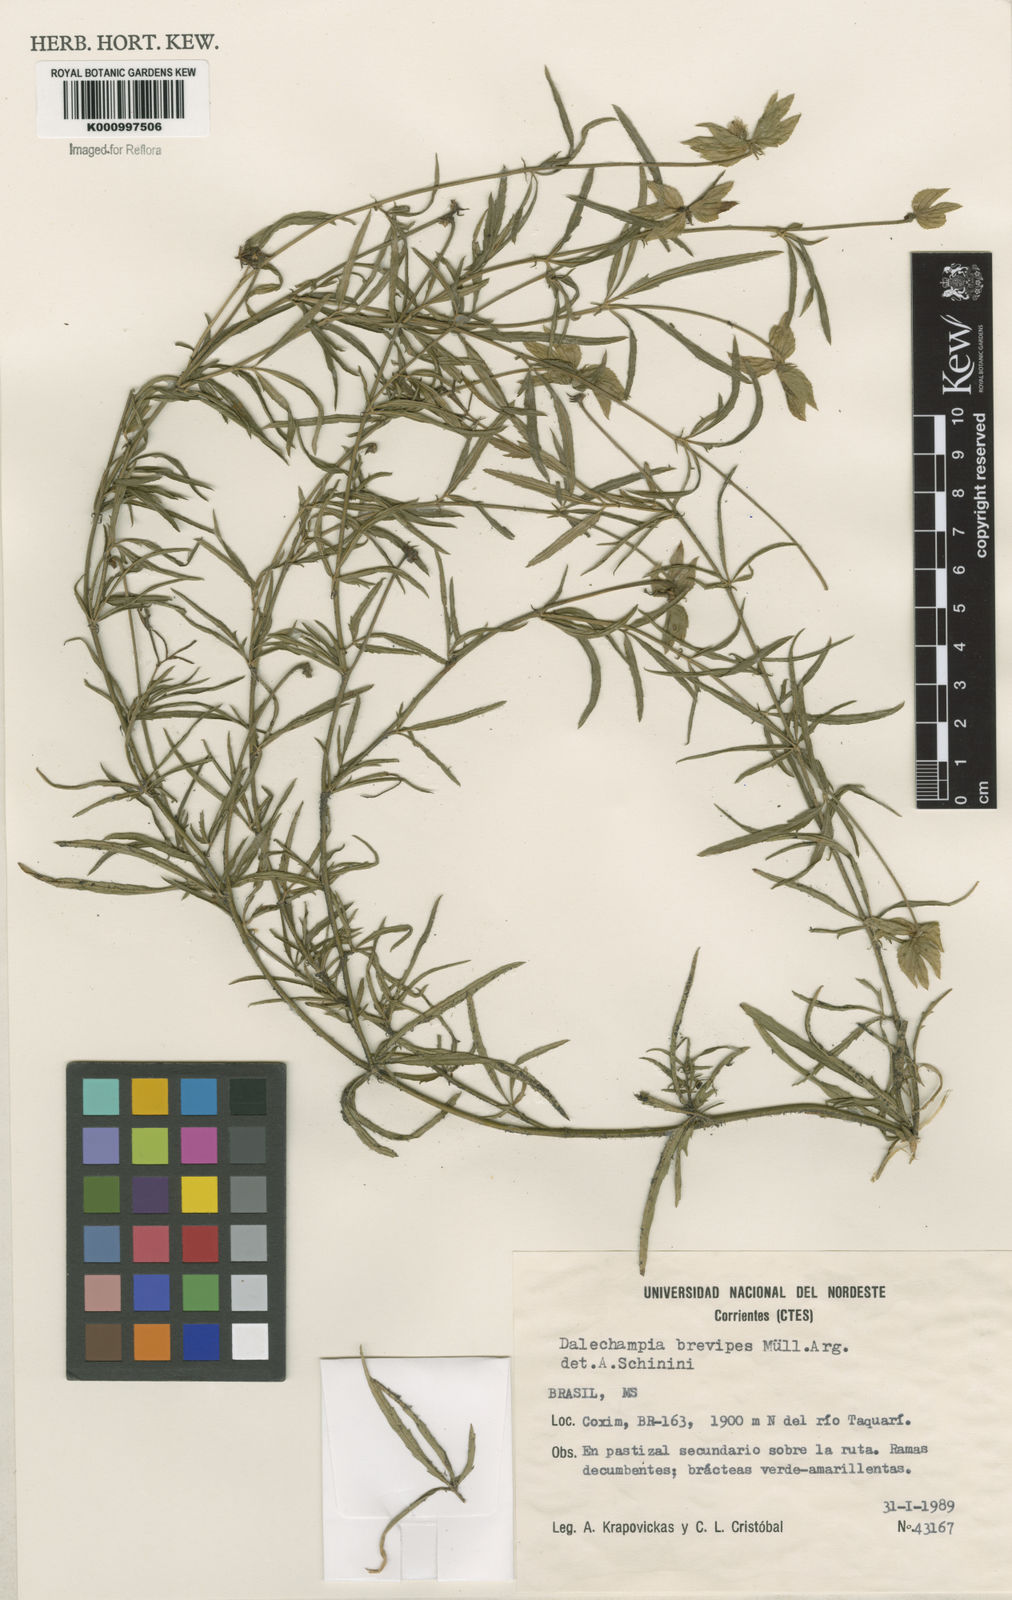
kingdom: Plantae
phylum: Tracheophyta
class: Magnoliopsida
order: Malpighiales
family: Euphorbiaceae
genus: Dalechampia
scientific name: Dalechampia
